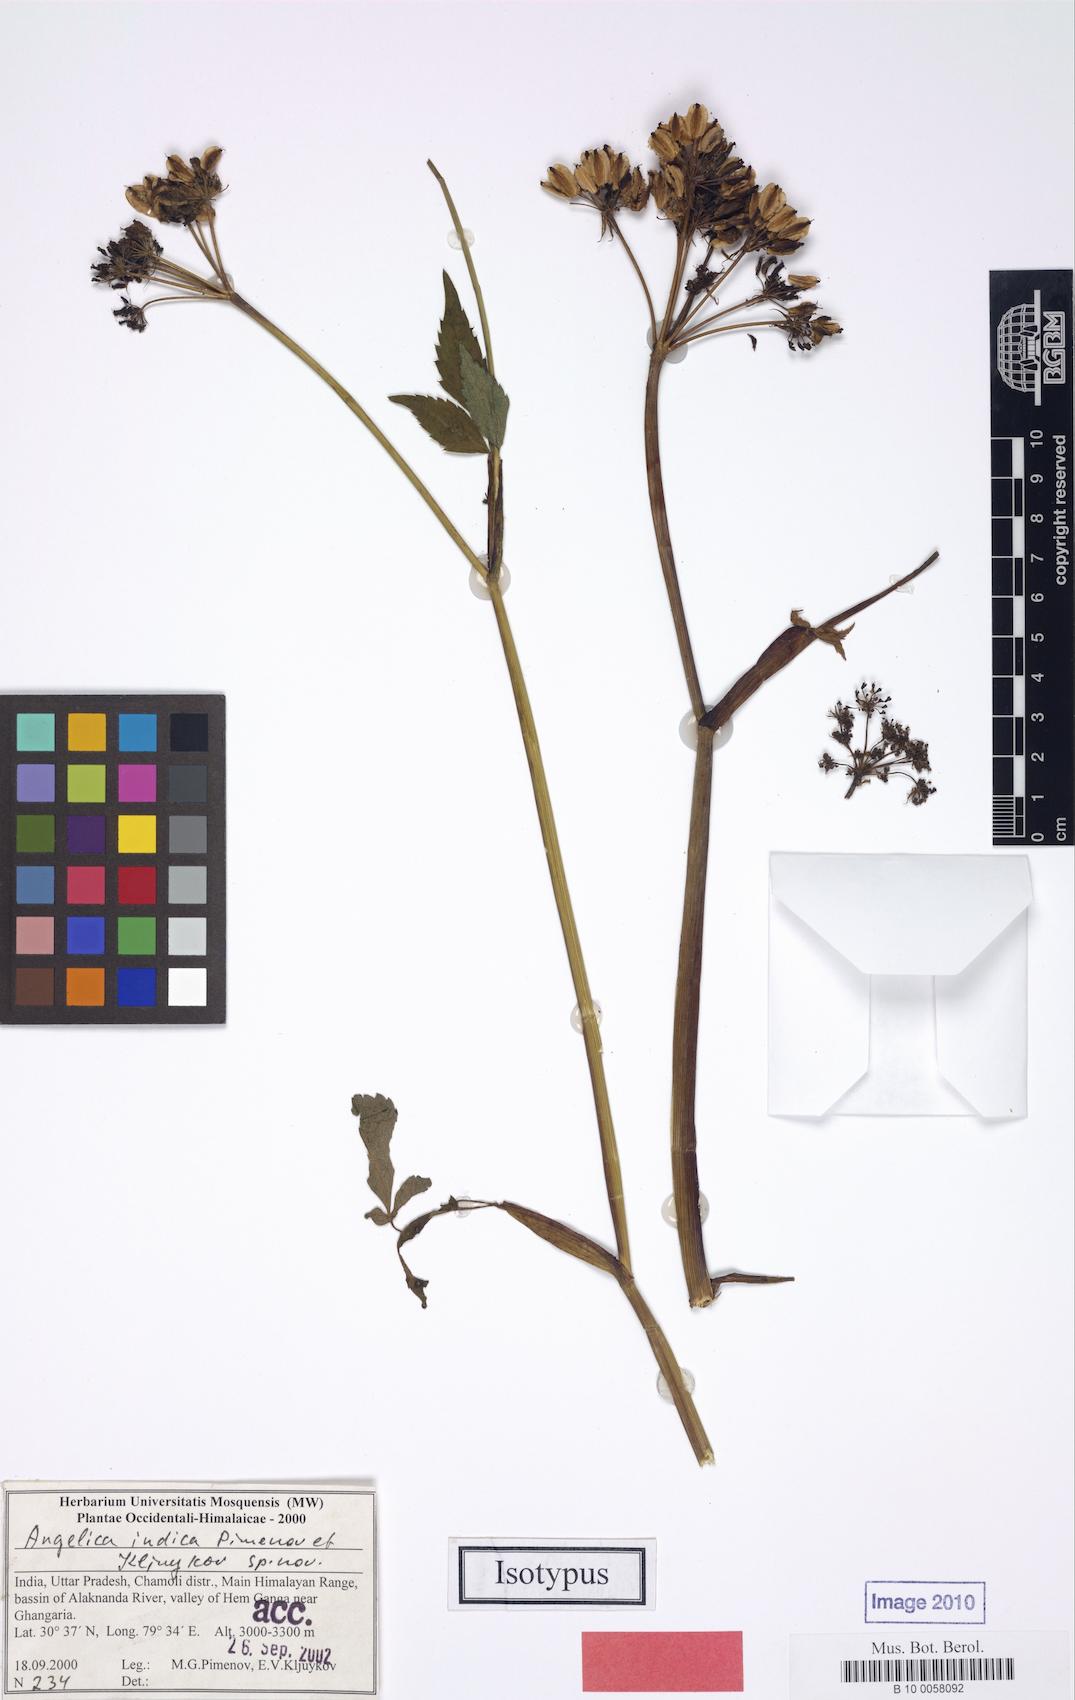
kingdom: Plantae
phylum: Tracheophyta
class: Magnoliopsida
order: Apiales
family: Apiaceae
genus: Angelica
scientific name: Angelica indica
